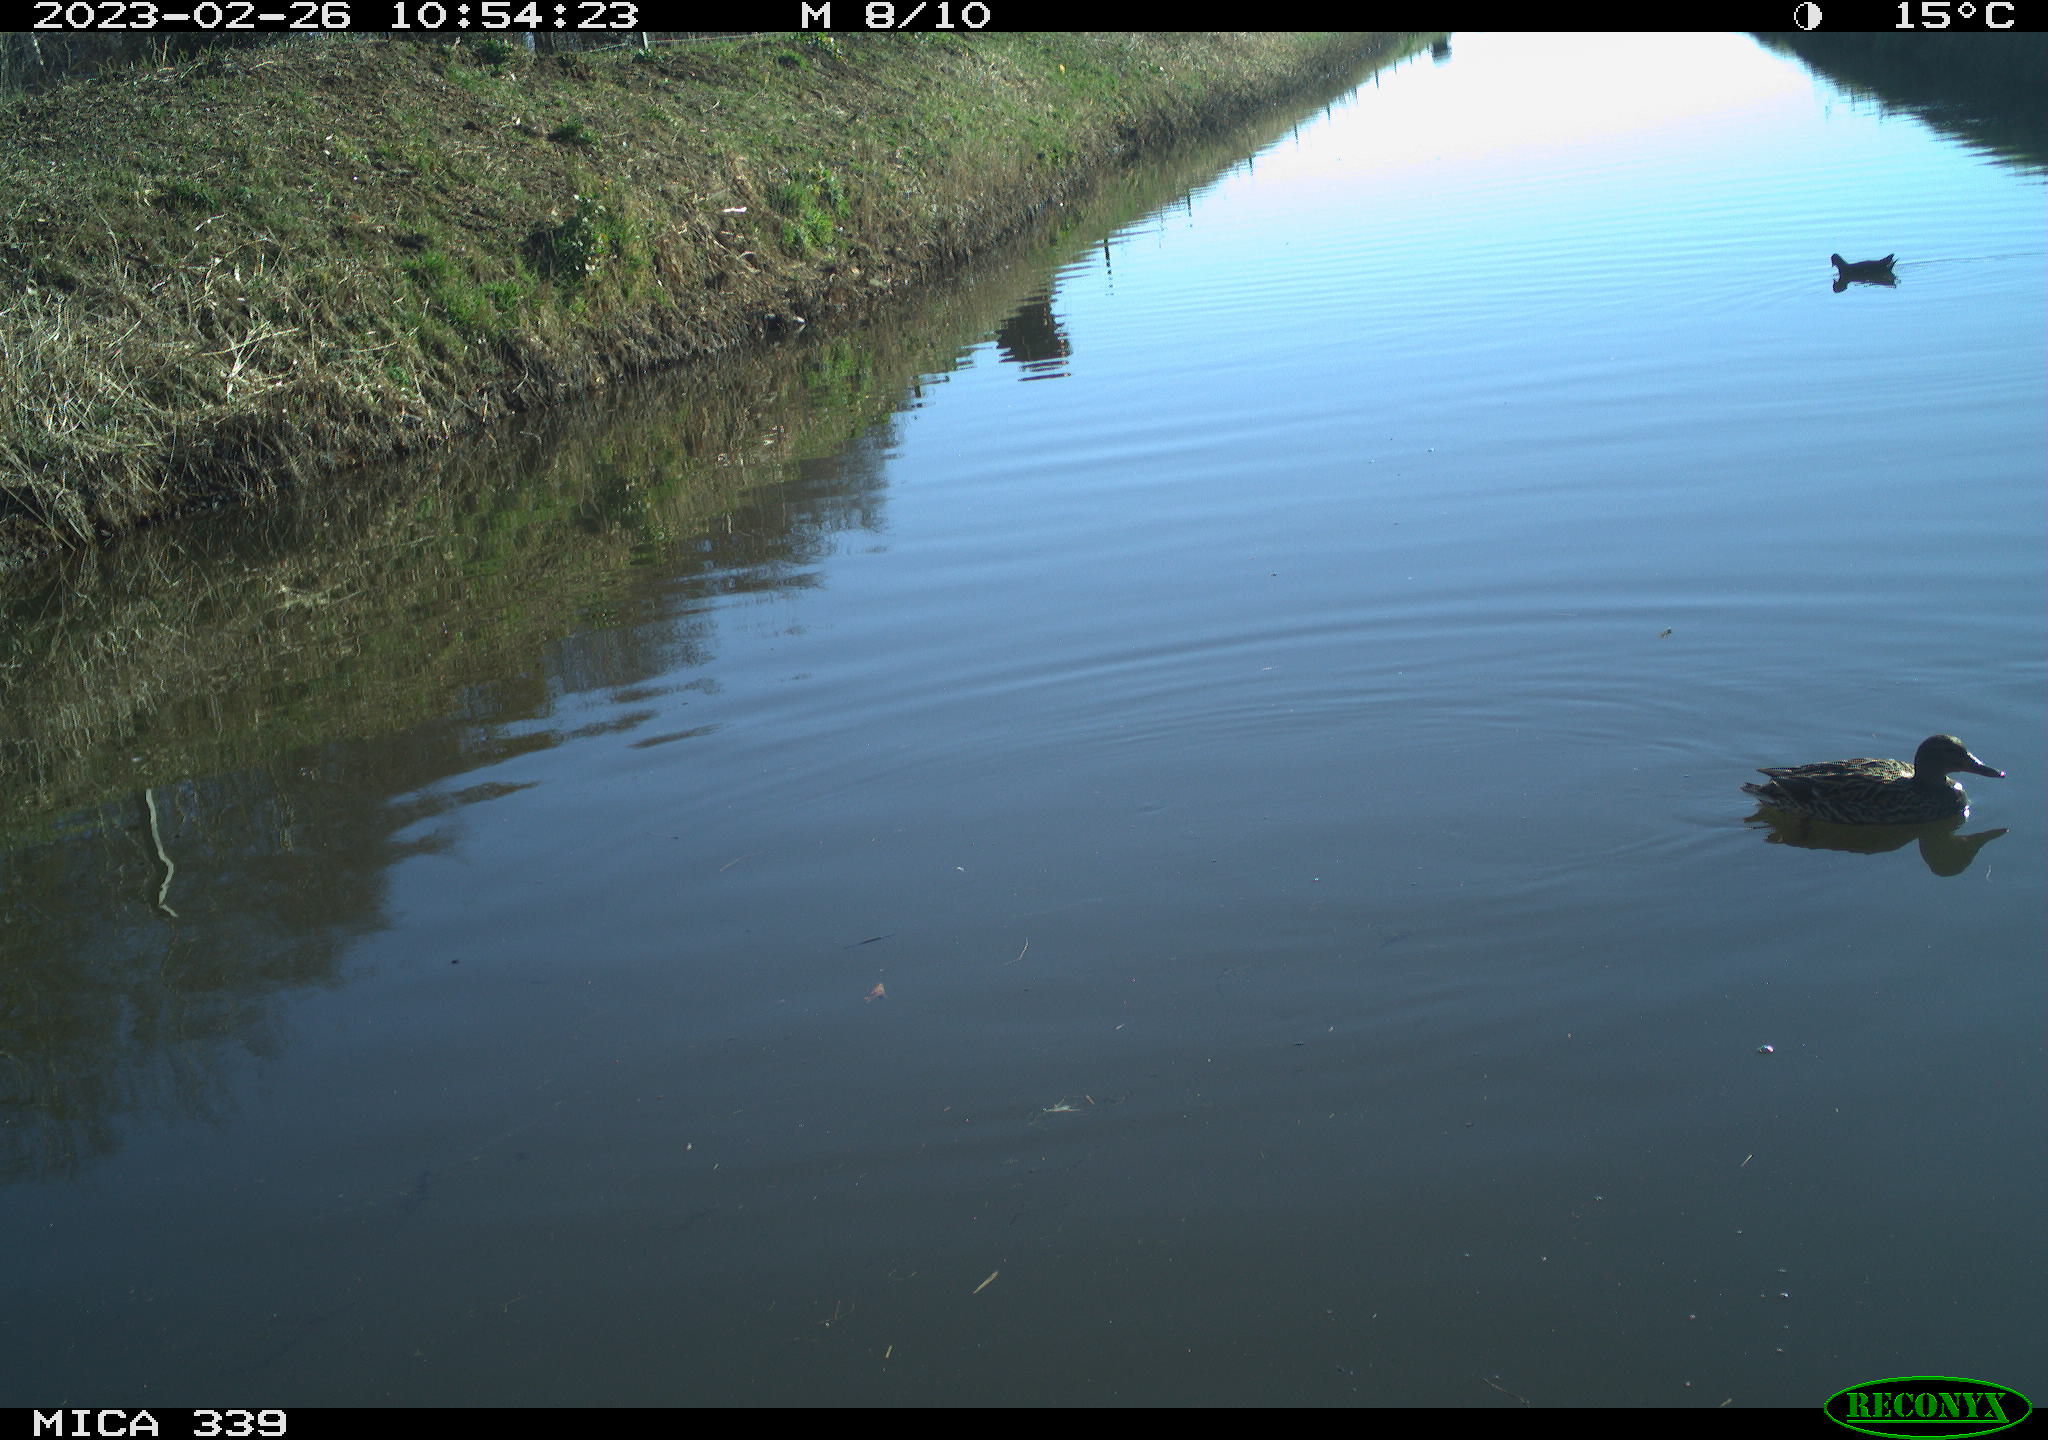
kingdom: Animalia
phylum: Chordata
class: Aves
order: Gruiformes
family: Rallidae
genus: Gallinula
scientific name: Gallinula chloropus
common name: Common moorhen
